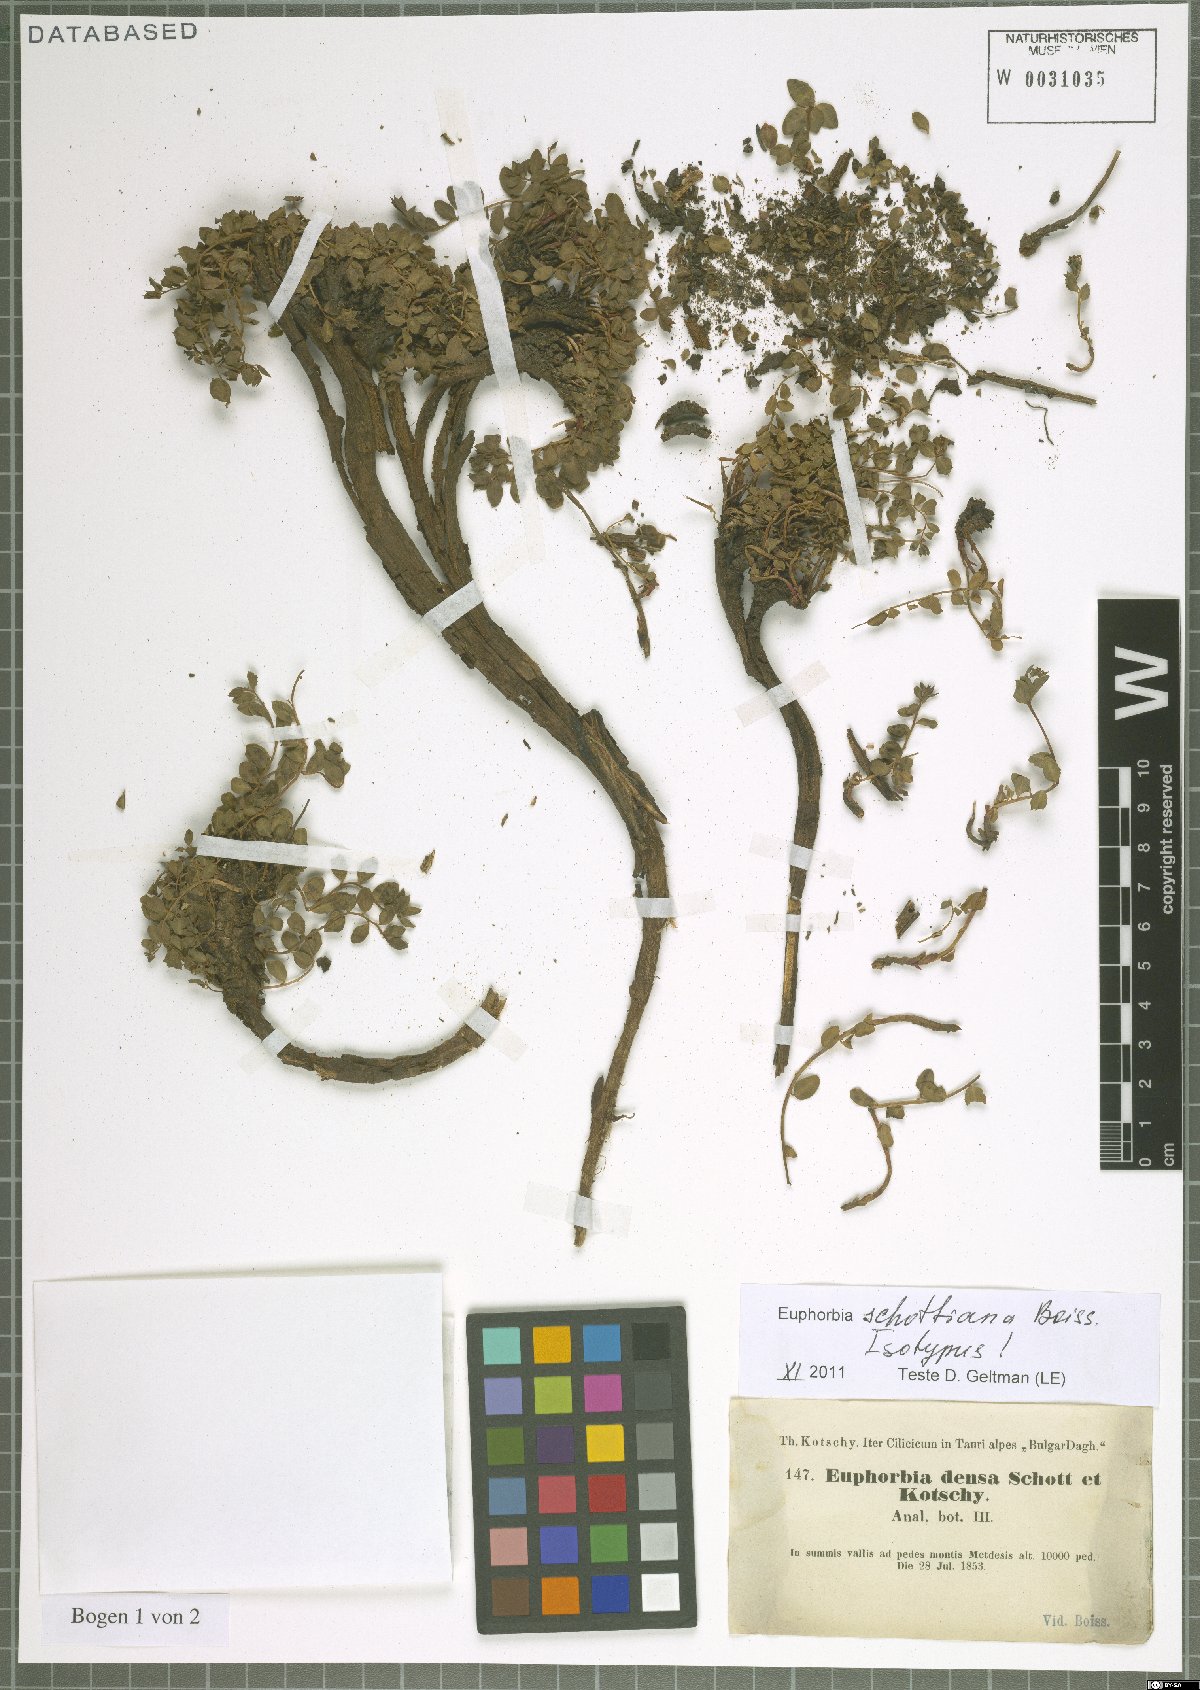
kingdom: Plantae
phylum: Tracheophyta
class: Magnoliopsida
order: Malpighiales
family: Euphorbiaceae
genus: Euphorbia
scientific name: Euphorbia schottiana
